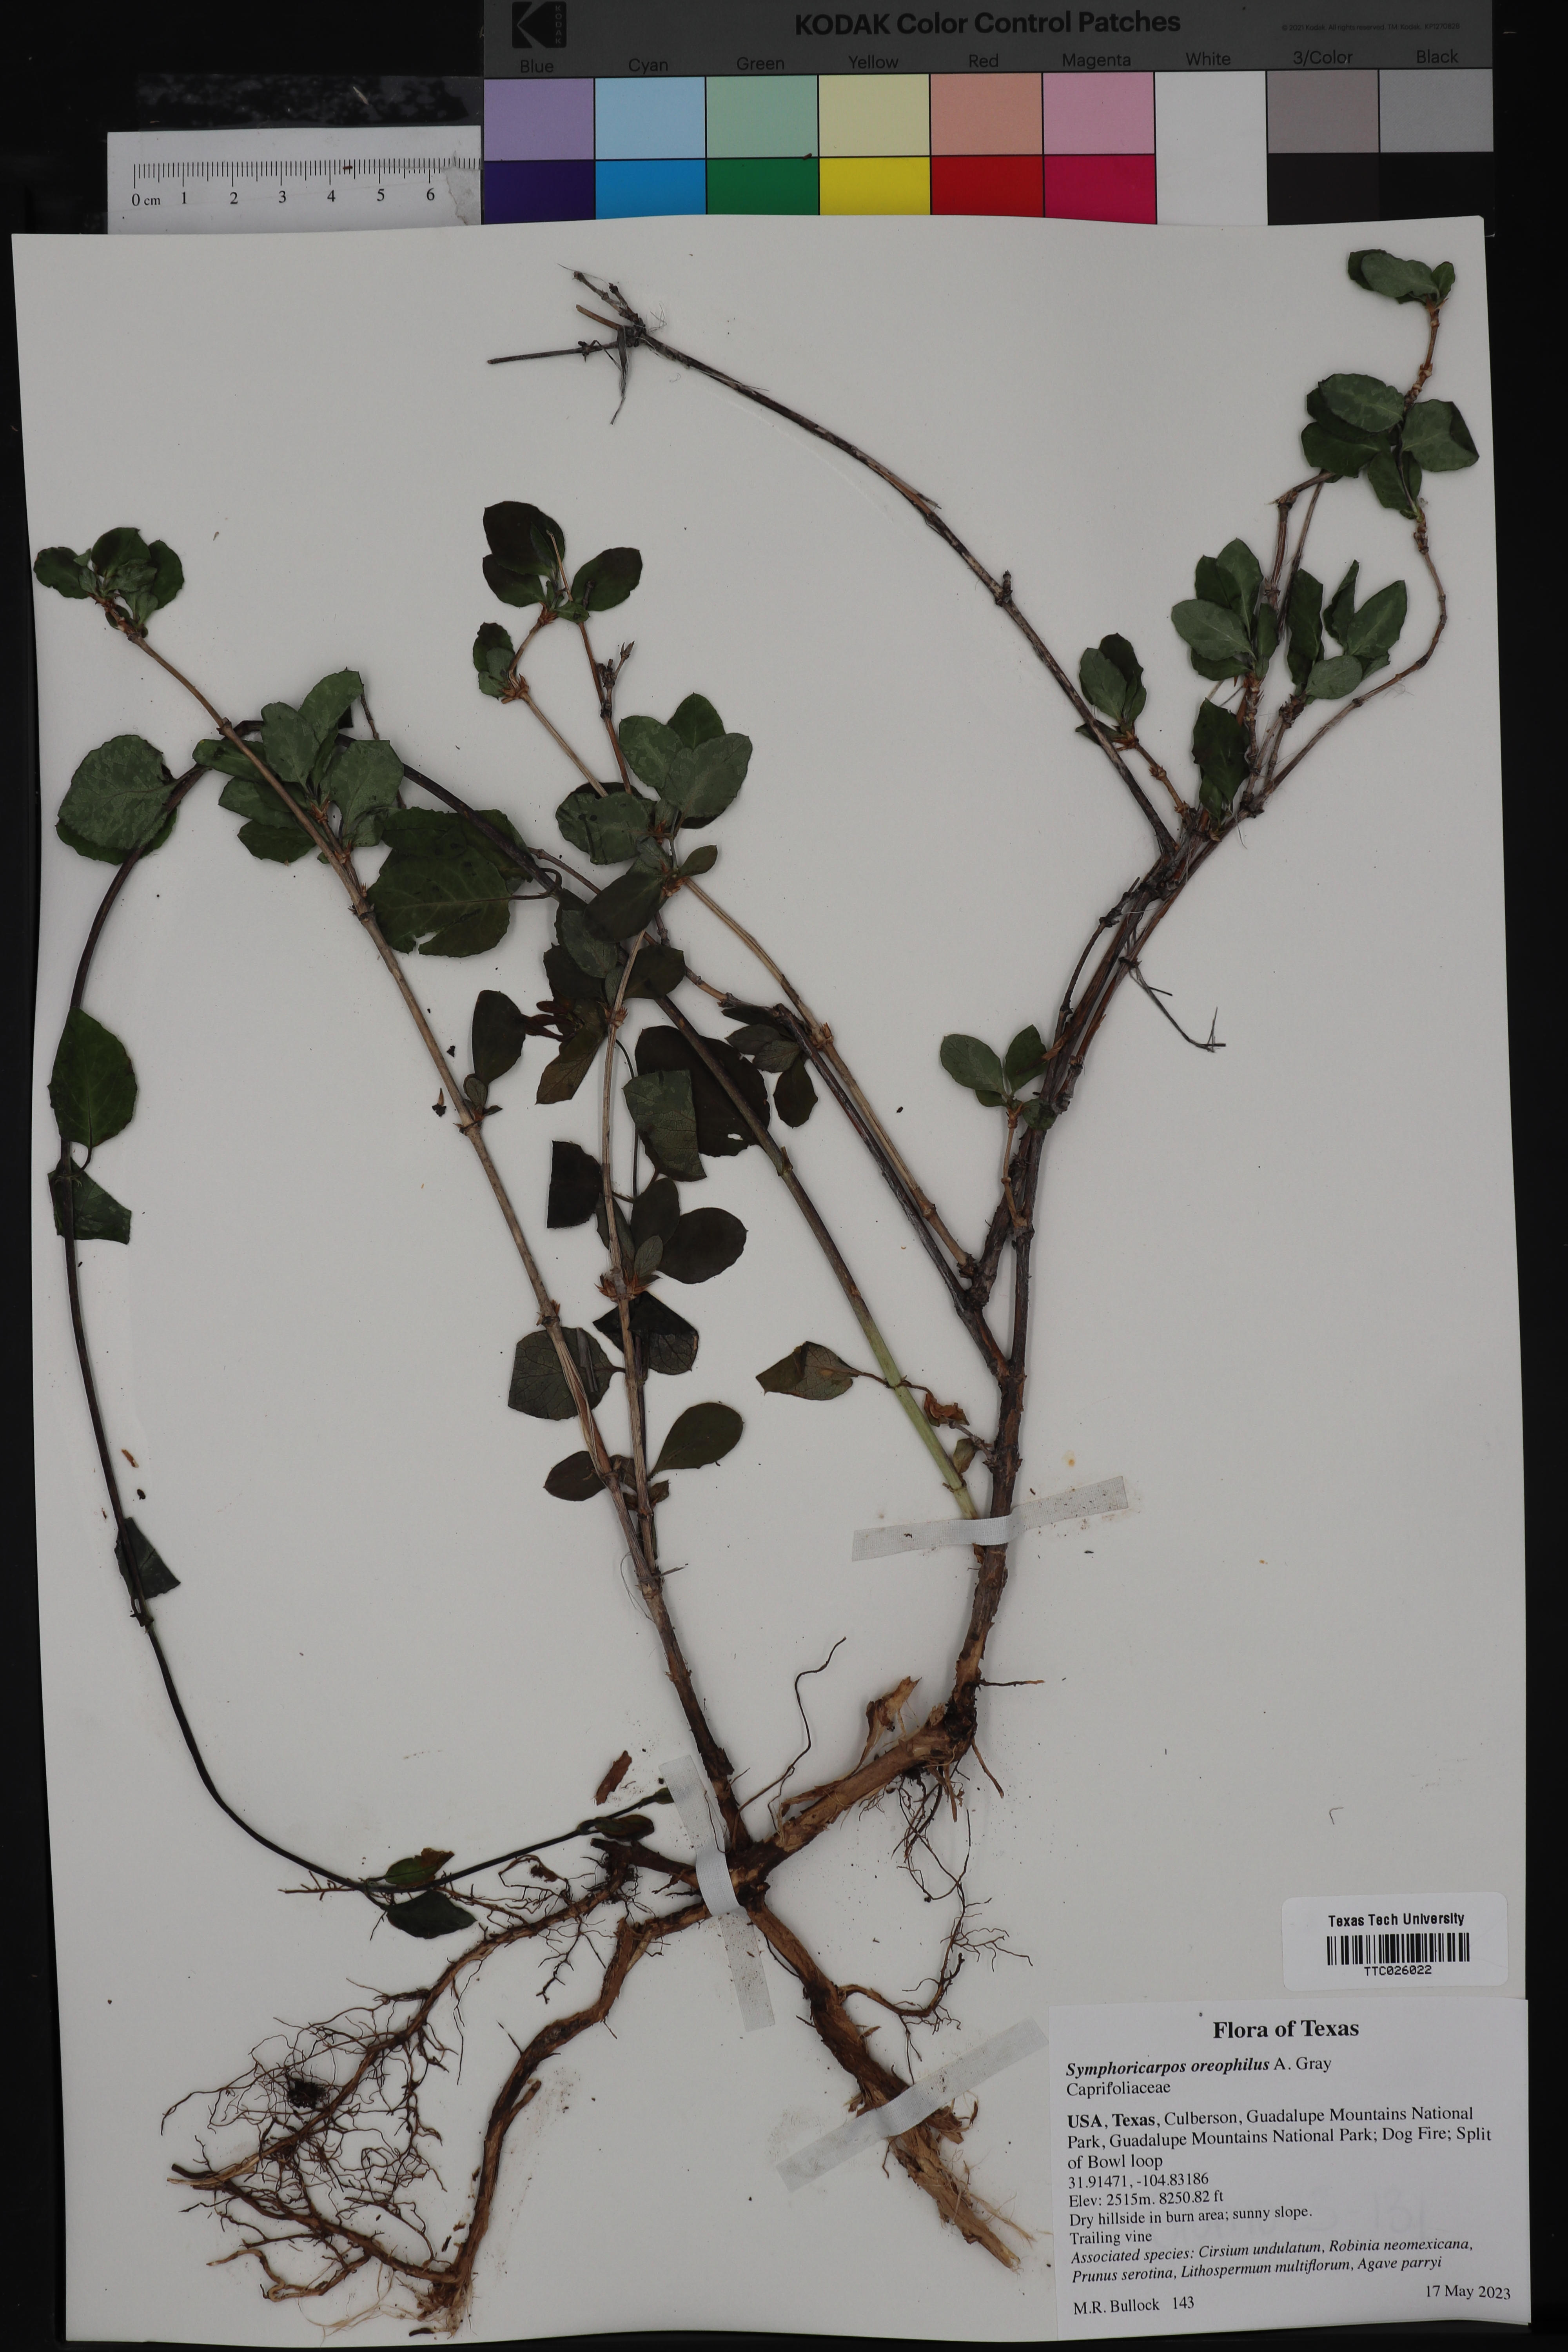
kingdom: Plantae
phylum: Tracheophyta
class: Magnoliopsida
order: Dipsacales
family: Caprifoliaceae
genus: Symphoricarpos
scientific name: Symphoricarpos oreophilus
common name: Mountain snowberry
